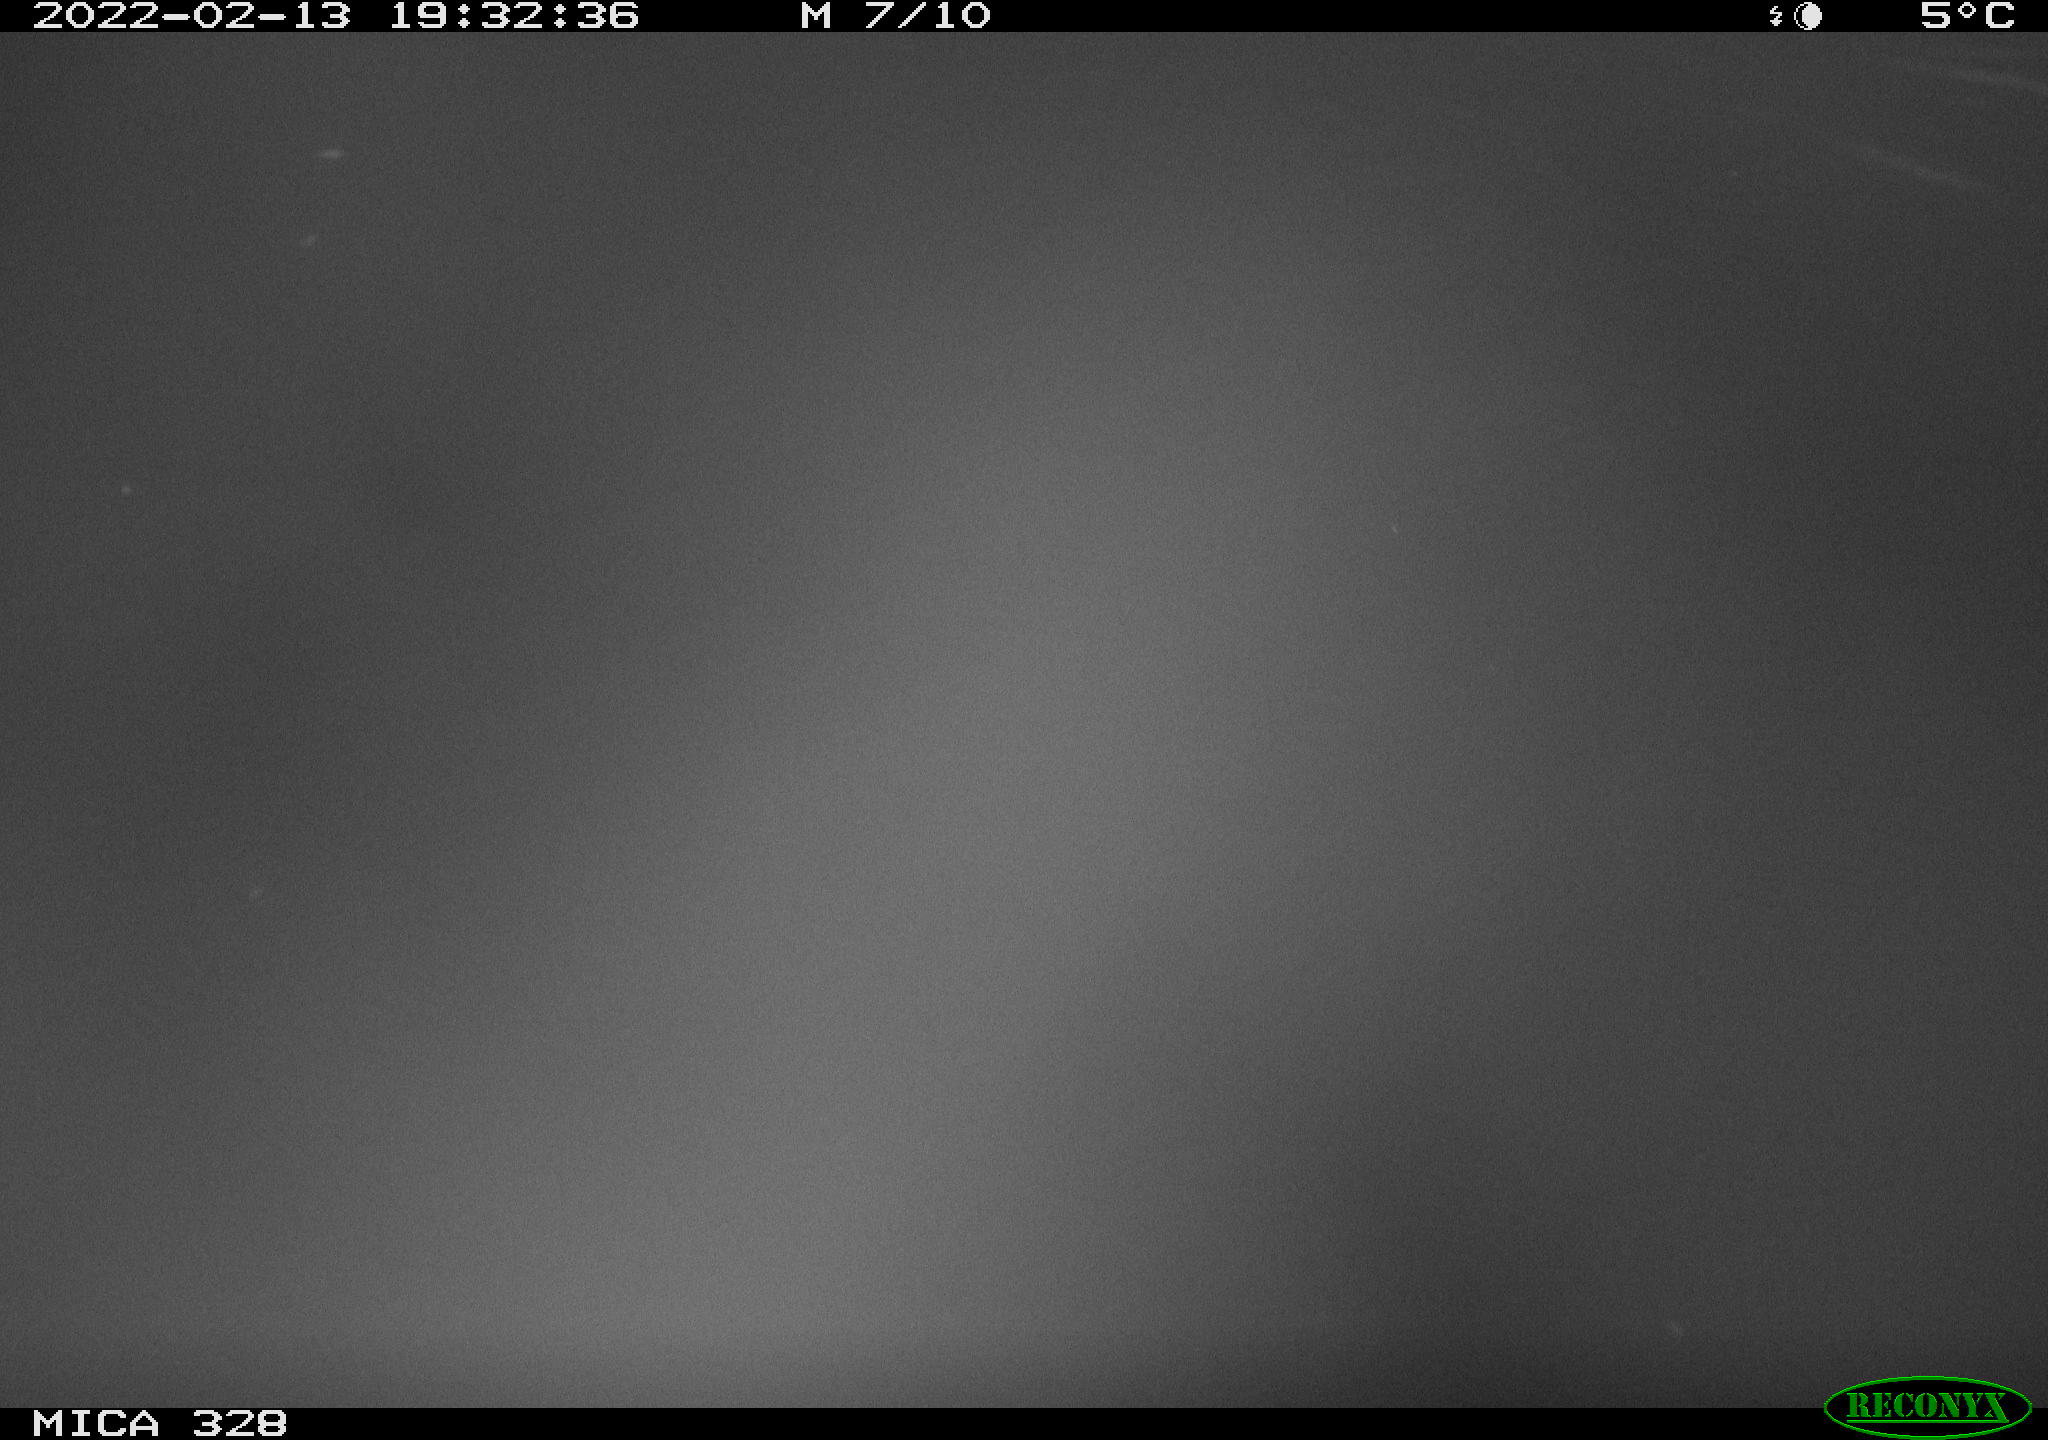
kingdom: Animalia
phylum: Chordata
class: Mammalia
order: Rodentia
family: Cricetidae
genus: Ondatra
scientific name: Ondatra zibethicus
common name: Muskrat
